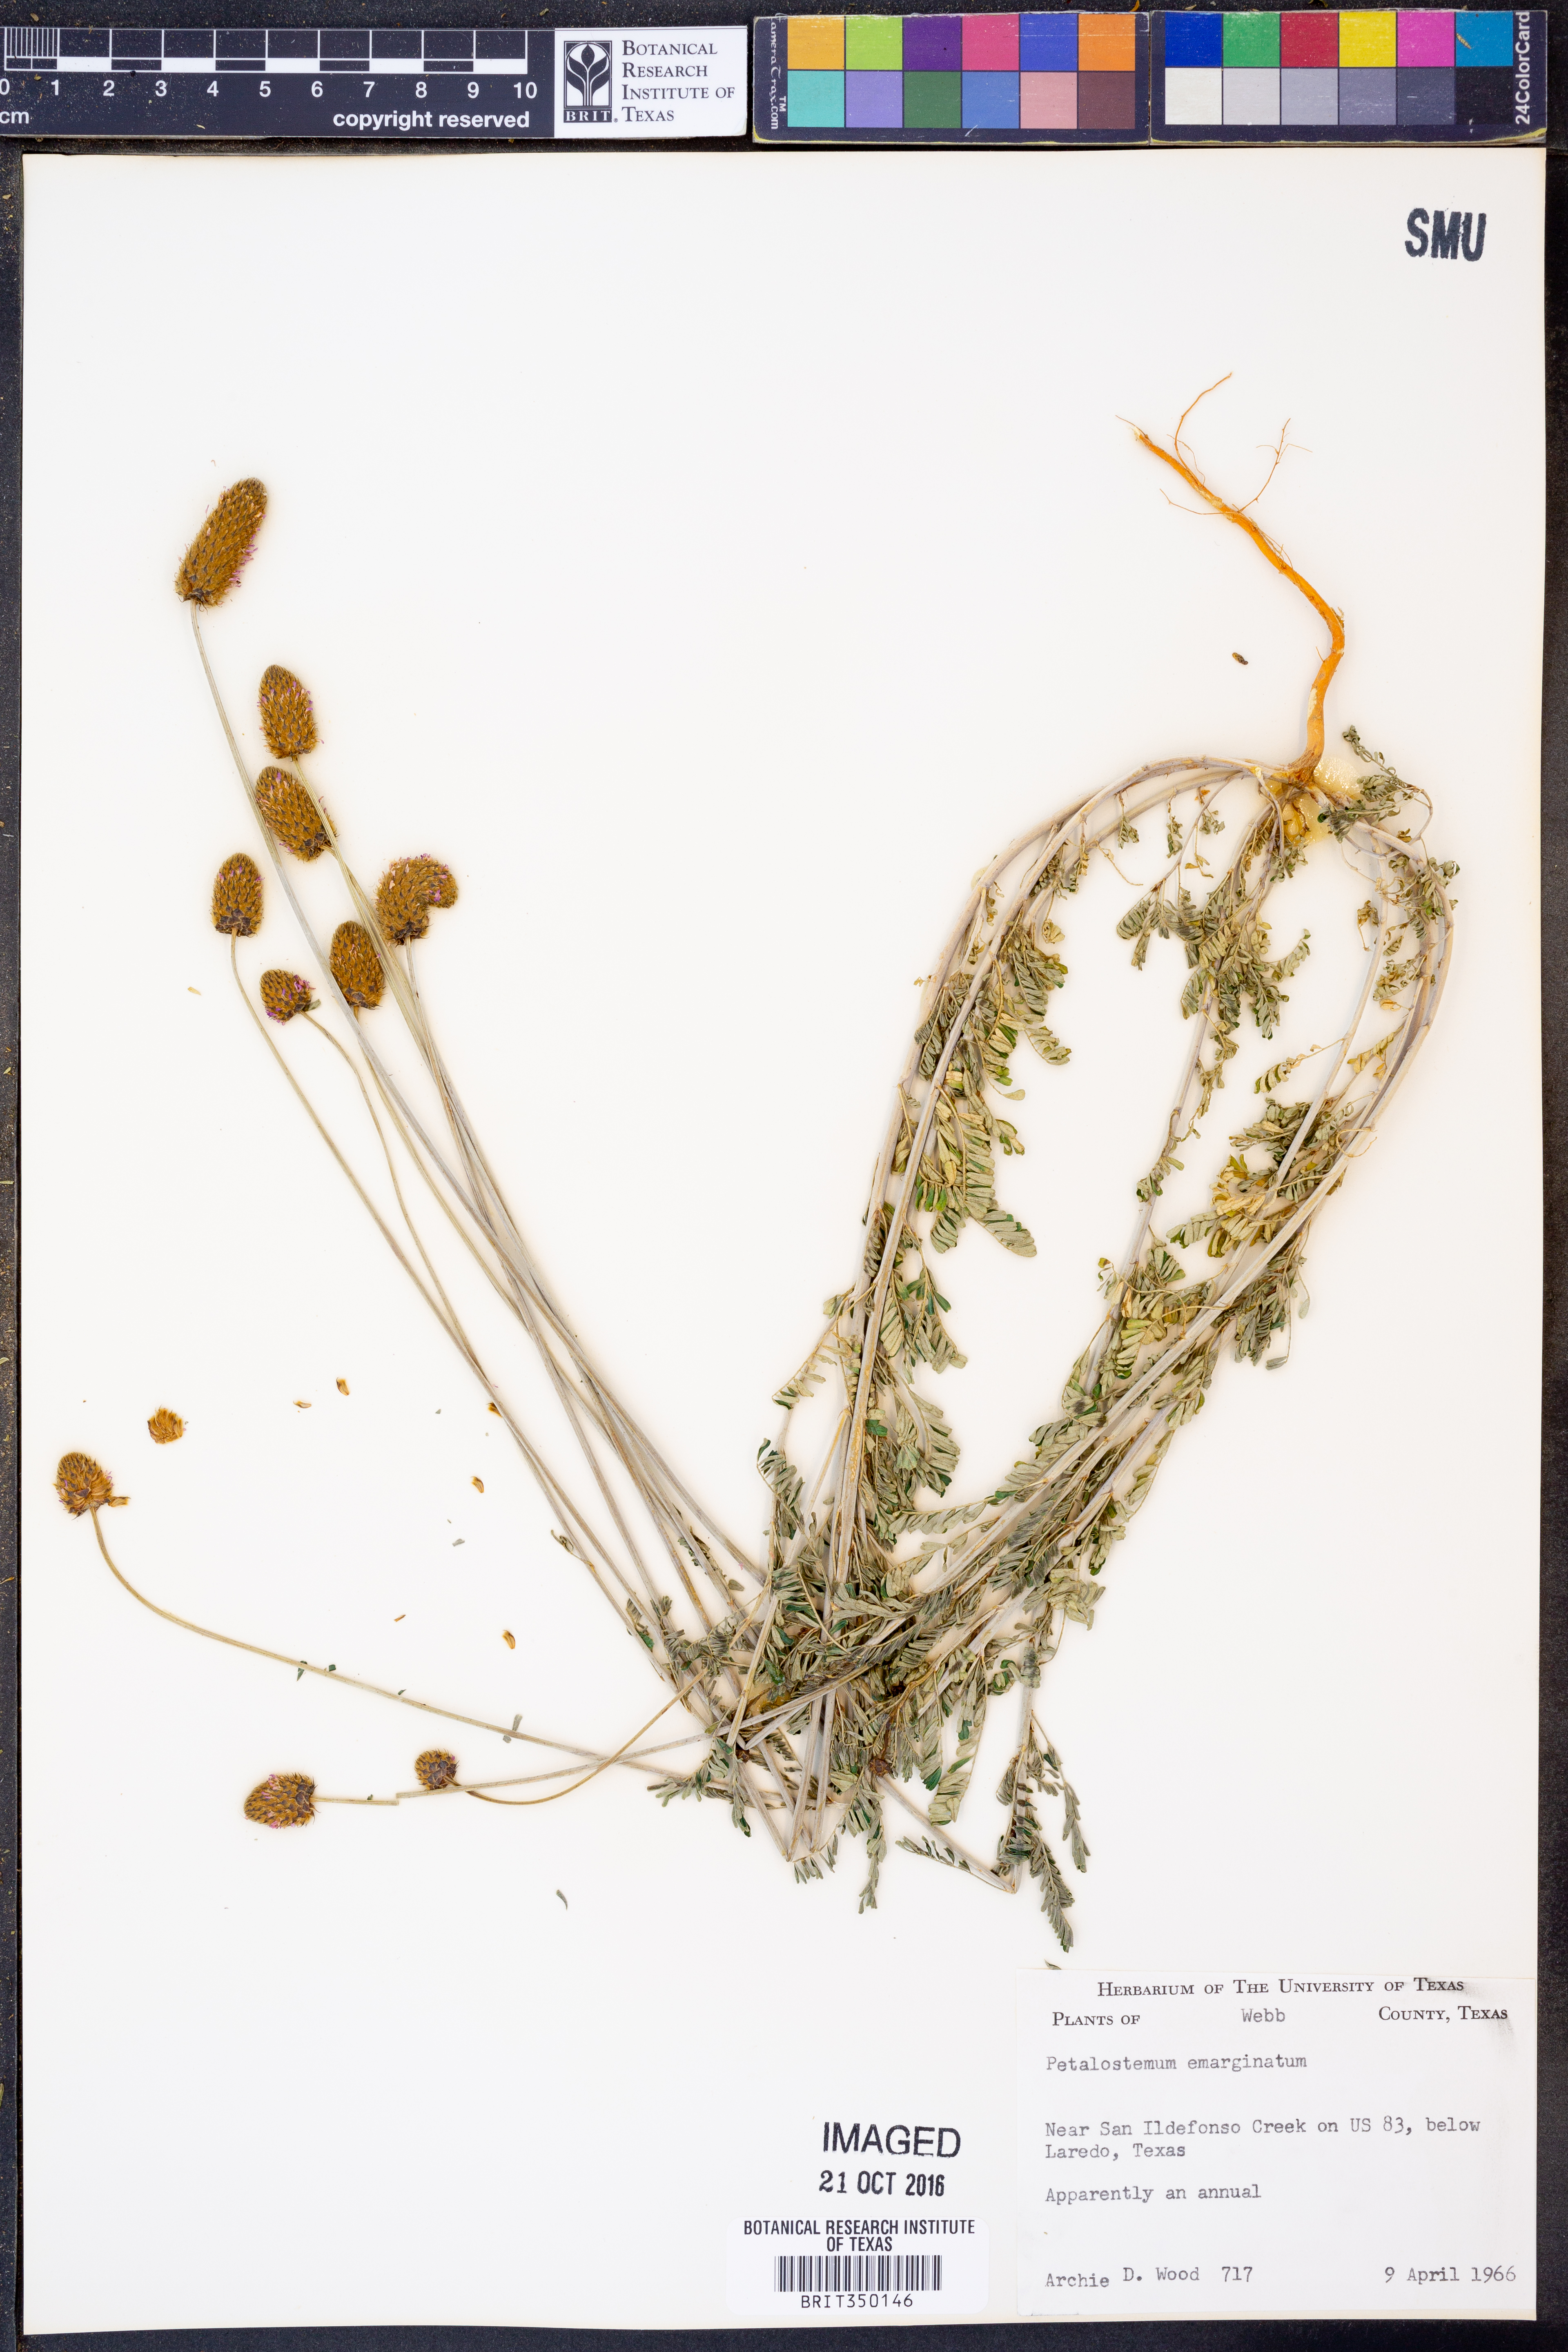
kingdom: Plantae
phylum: Tracheophyta
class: Magnoliopsida
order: Fabales
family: Fabaceae
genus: Dalea
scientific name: Dalea emarginata
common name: Wedgeleaf prairie clover
